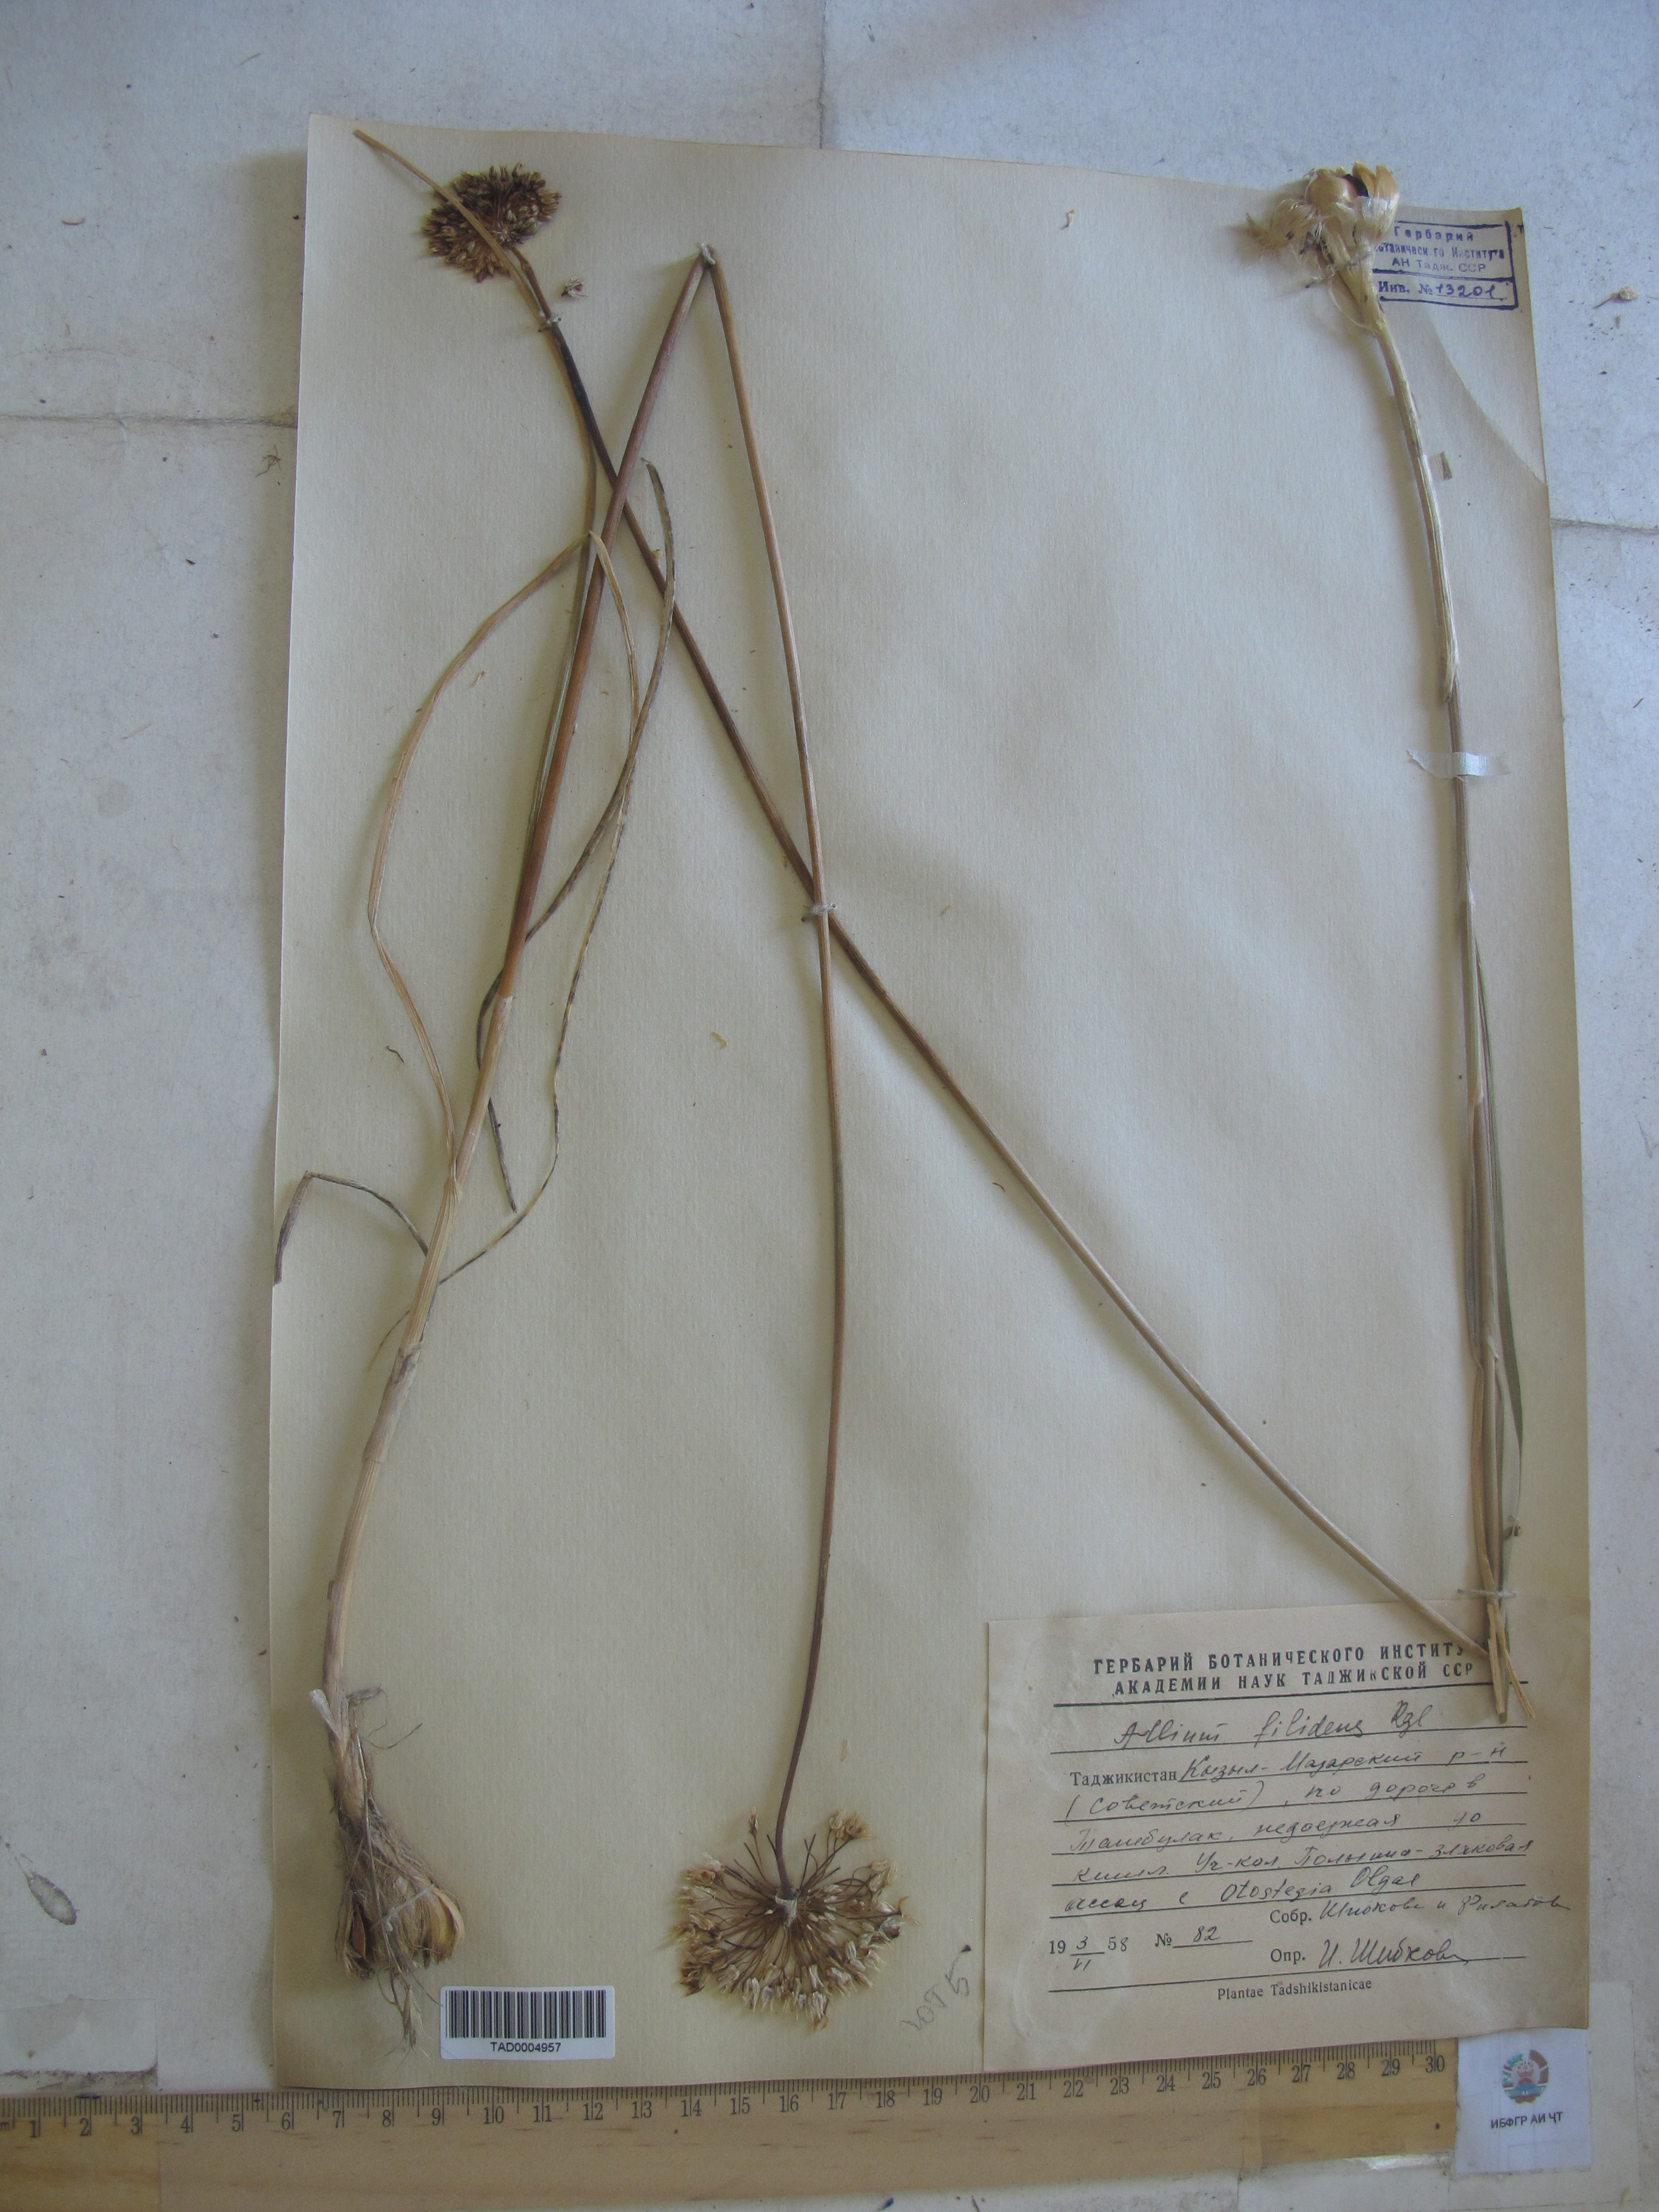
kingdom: Plantae
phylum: Tracheophyta
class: Liliopsida
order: Asparagales
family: Amaryllidaceae
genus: Allium
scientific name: Allium filidens
